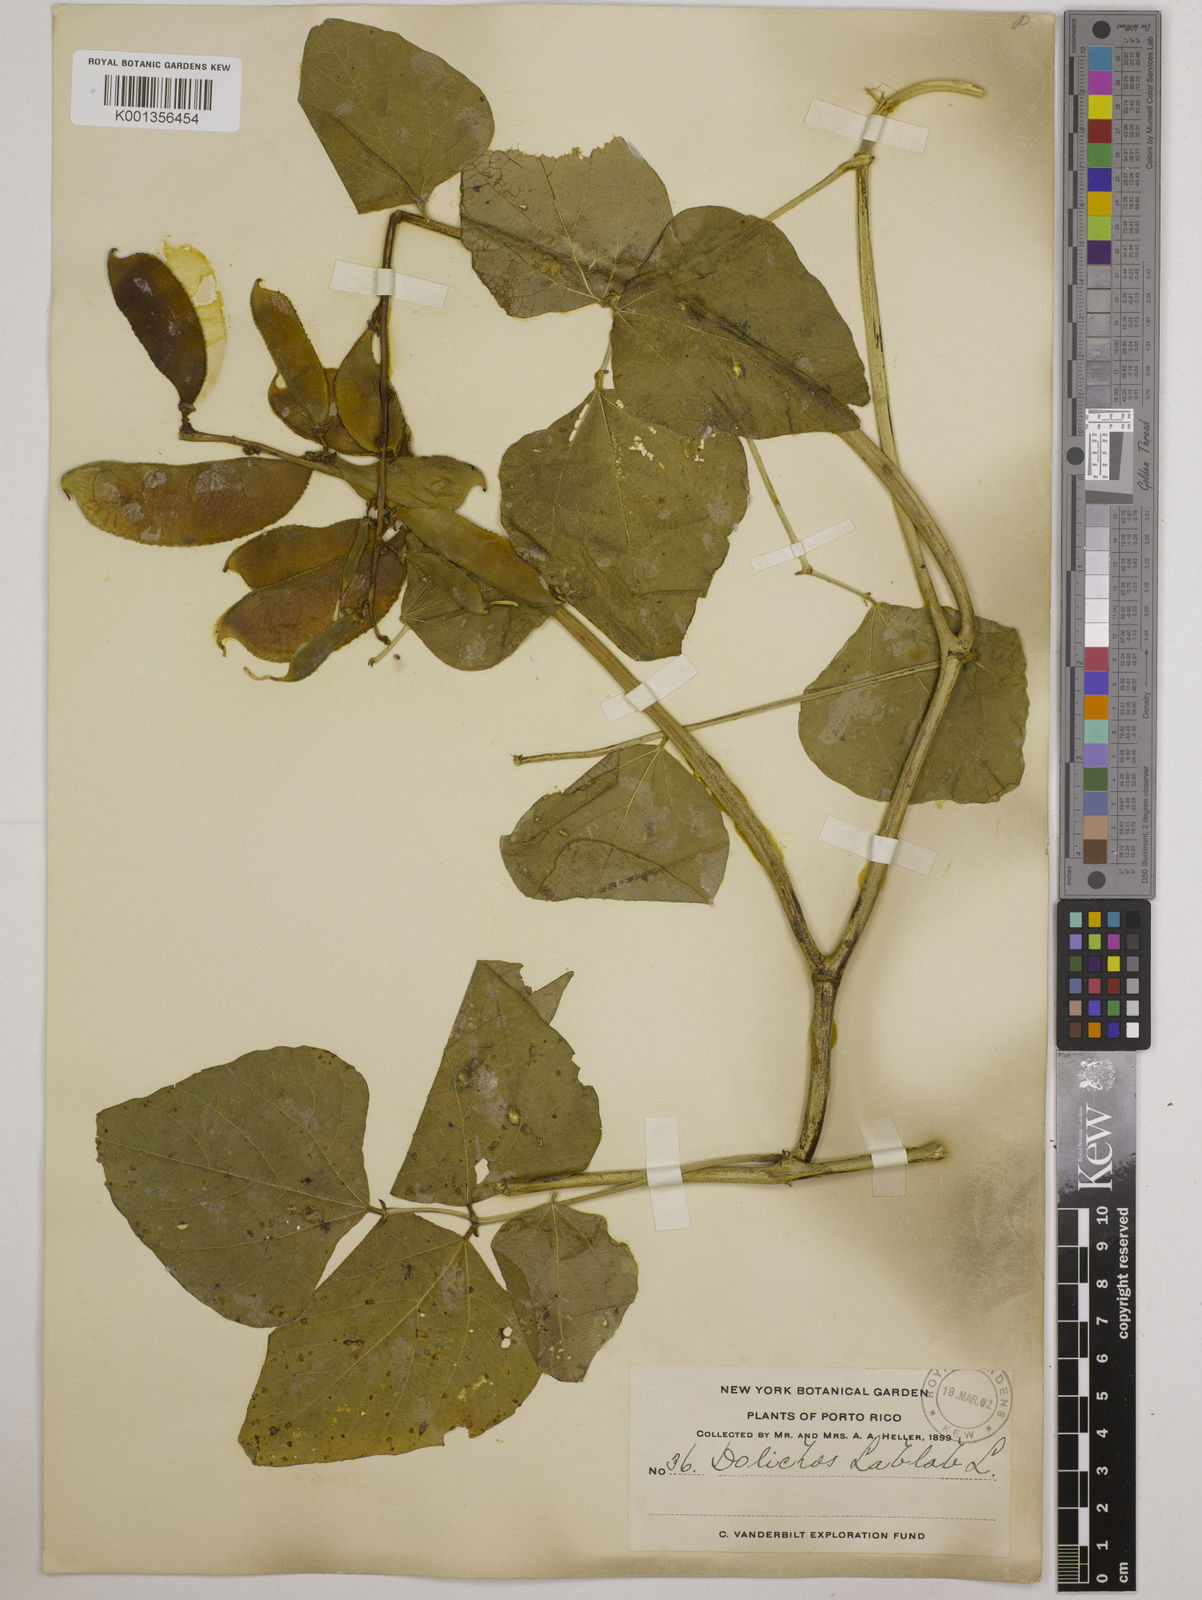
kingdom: Plantae
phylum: Tracheophyta
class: Magnoliopsida
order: Fabales
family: Fabaceae
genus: Lablab
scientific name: Lablab purpureus
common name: Lablab-bean
